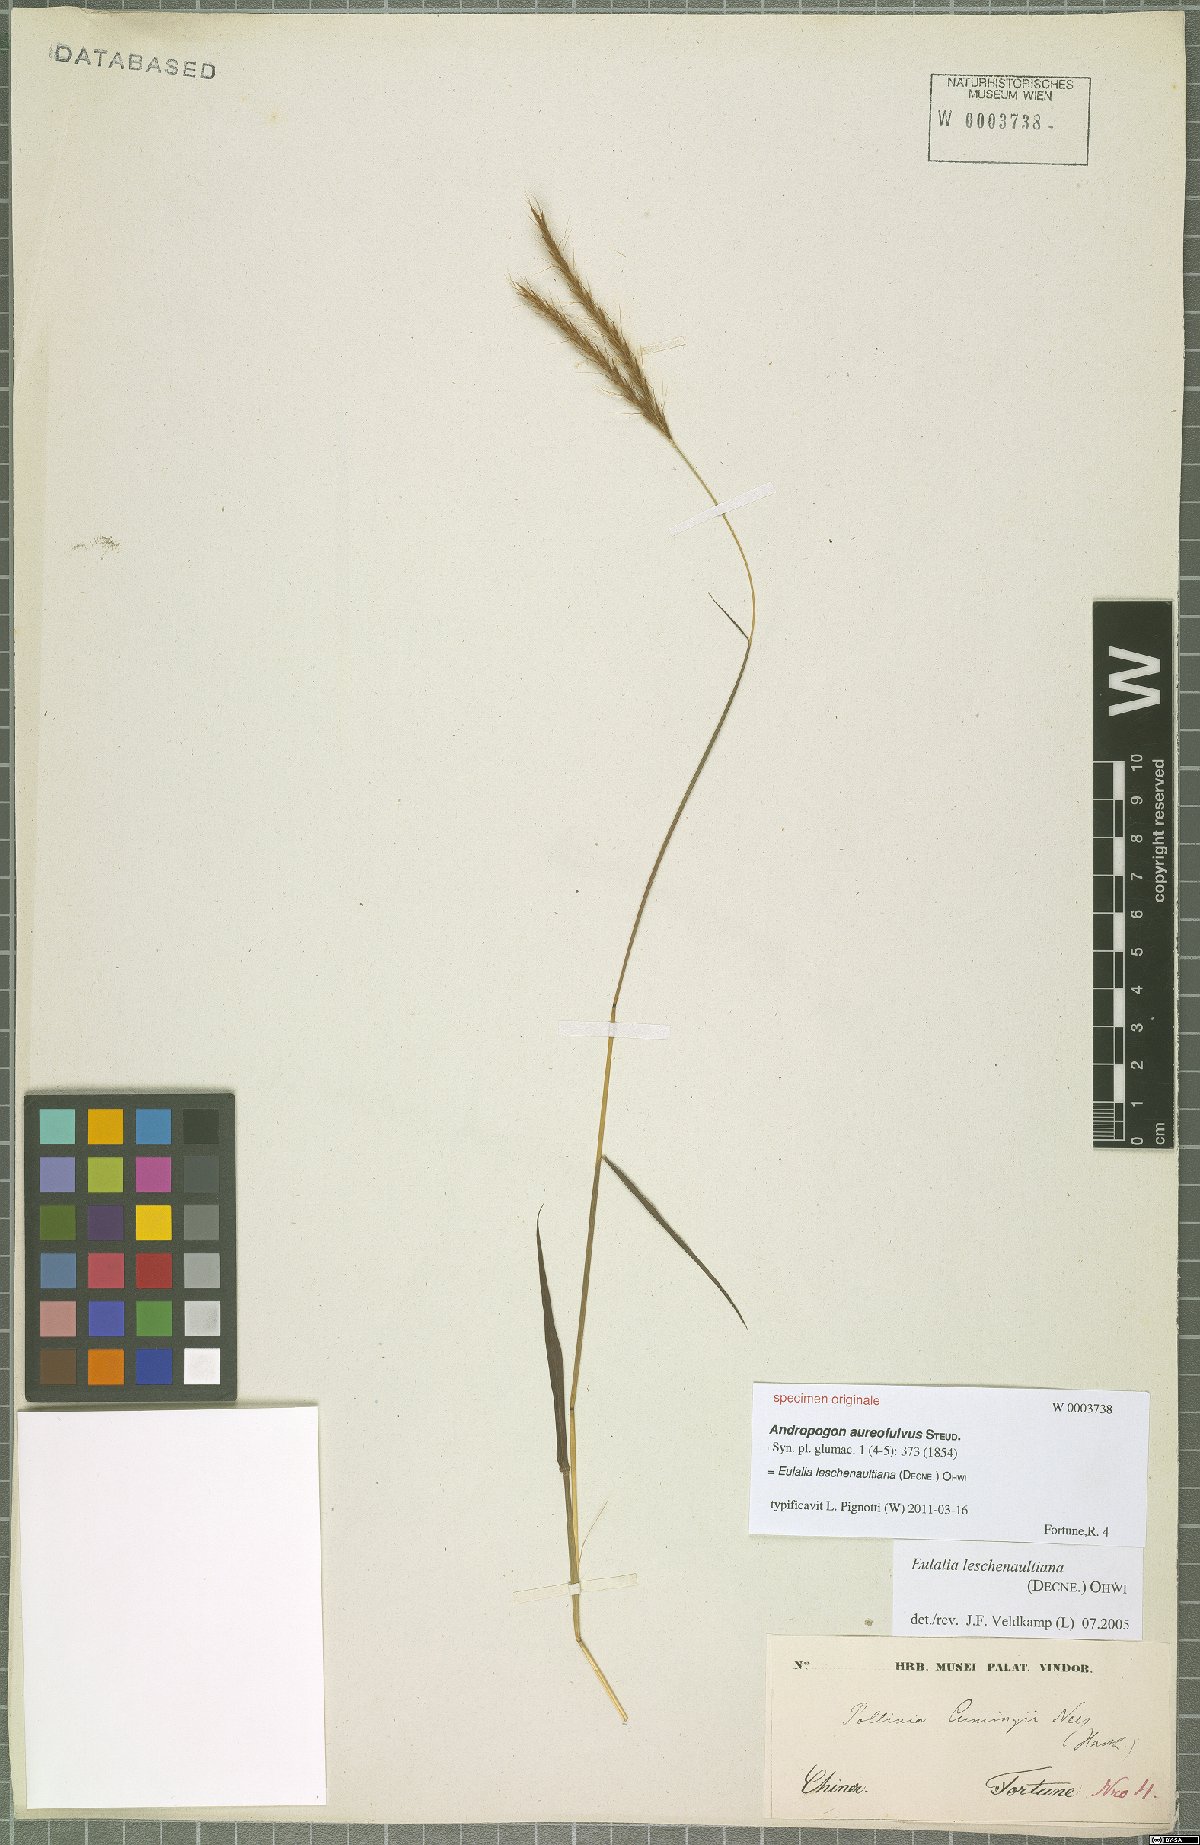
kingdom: Plantae
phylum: Tracheophyta
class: Liliopsida
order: Poales
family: Poaceae
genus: Eulalia
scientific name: Eulalia leschenaultiana
